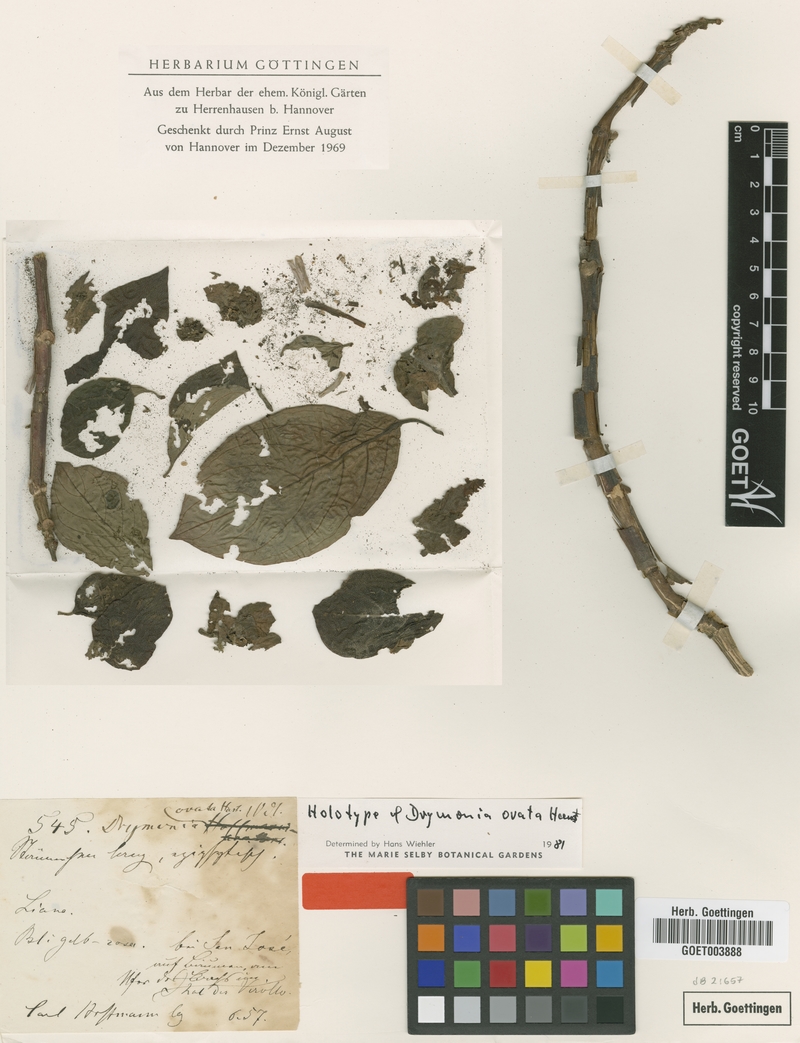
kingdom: Plantae
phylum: Tracheophyta
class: Magnoliopsida
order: Lamiales
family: Gesneriaceae
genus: Drymonia
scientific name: Drymonia serrulata
